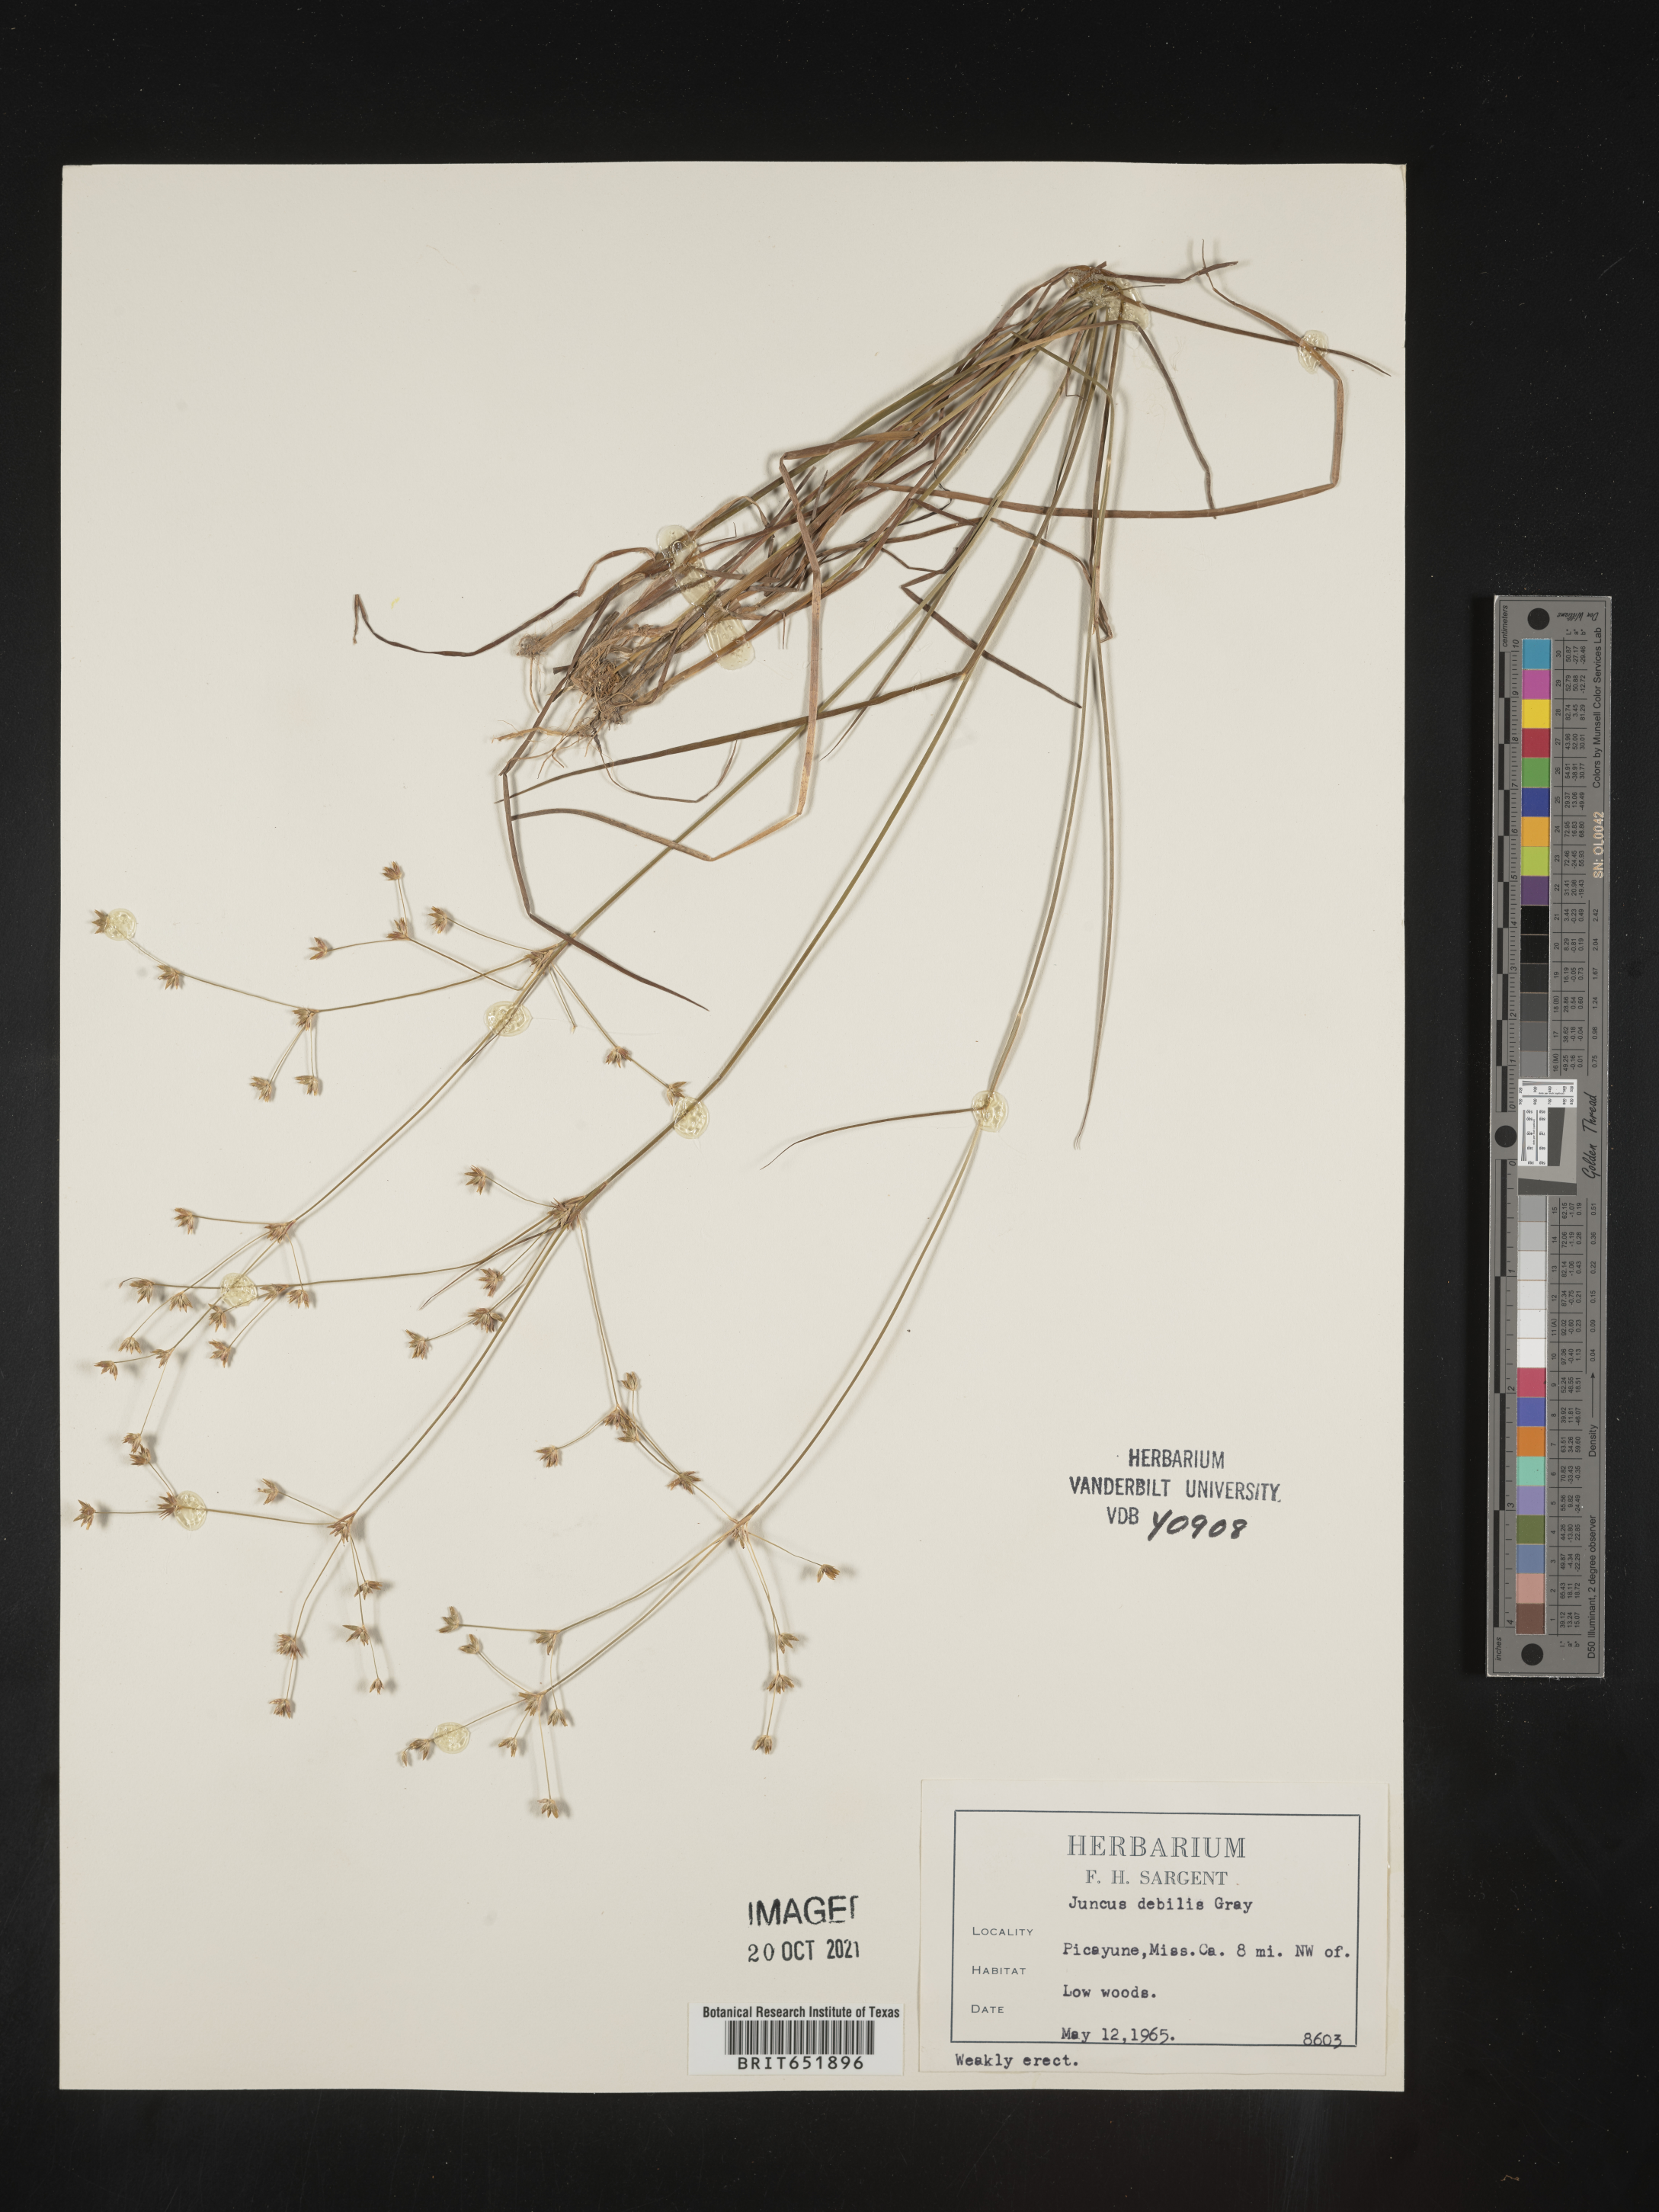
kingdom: Plantae
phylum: Tracheophyta
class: Liliopsida
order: Poales
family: Juncaceae
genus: Juncus
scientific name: Juncus debilis
